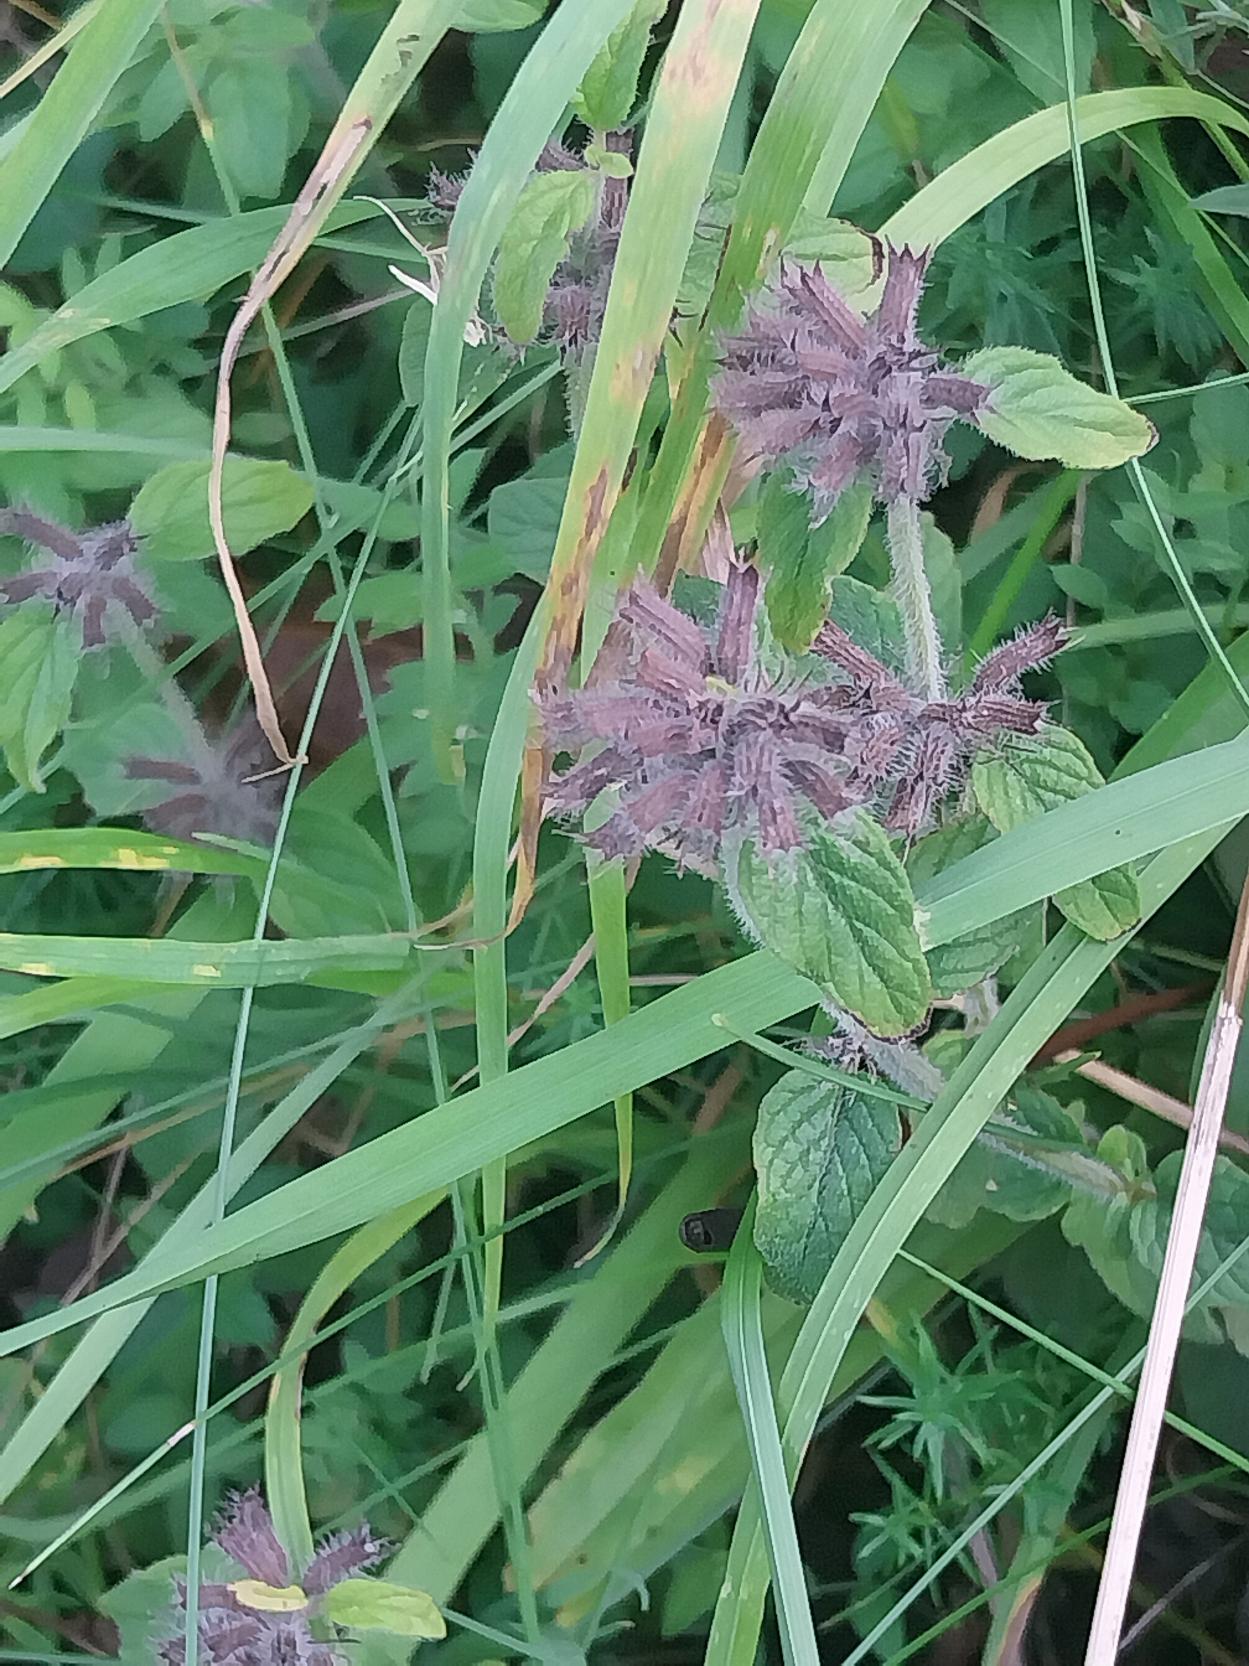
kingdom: Plantae
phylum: Tracheophyta
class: Magnoliopsida
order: Lamiales
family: Lamiaceae
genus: Clinopodium
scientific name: Clinopodium vulgare
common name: Kransbørste
